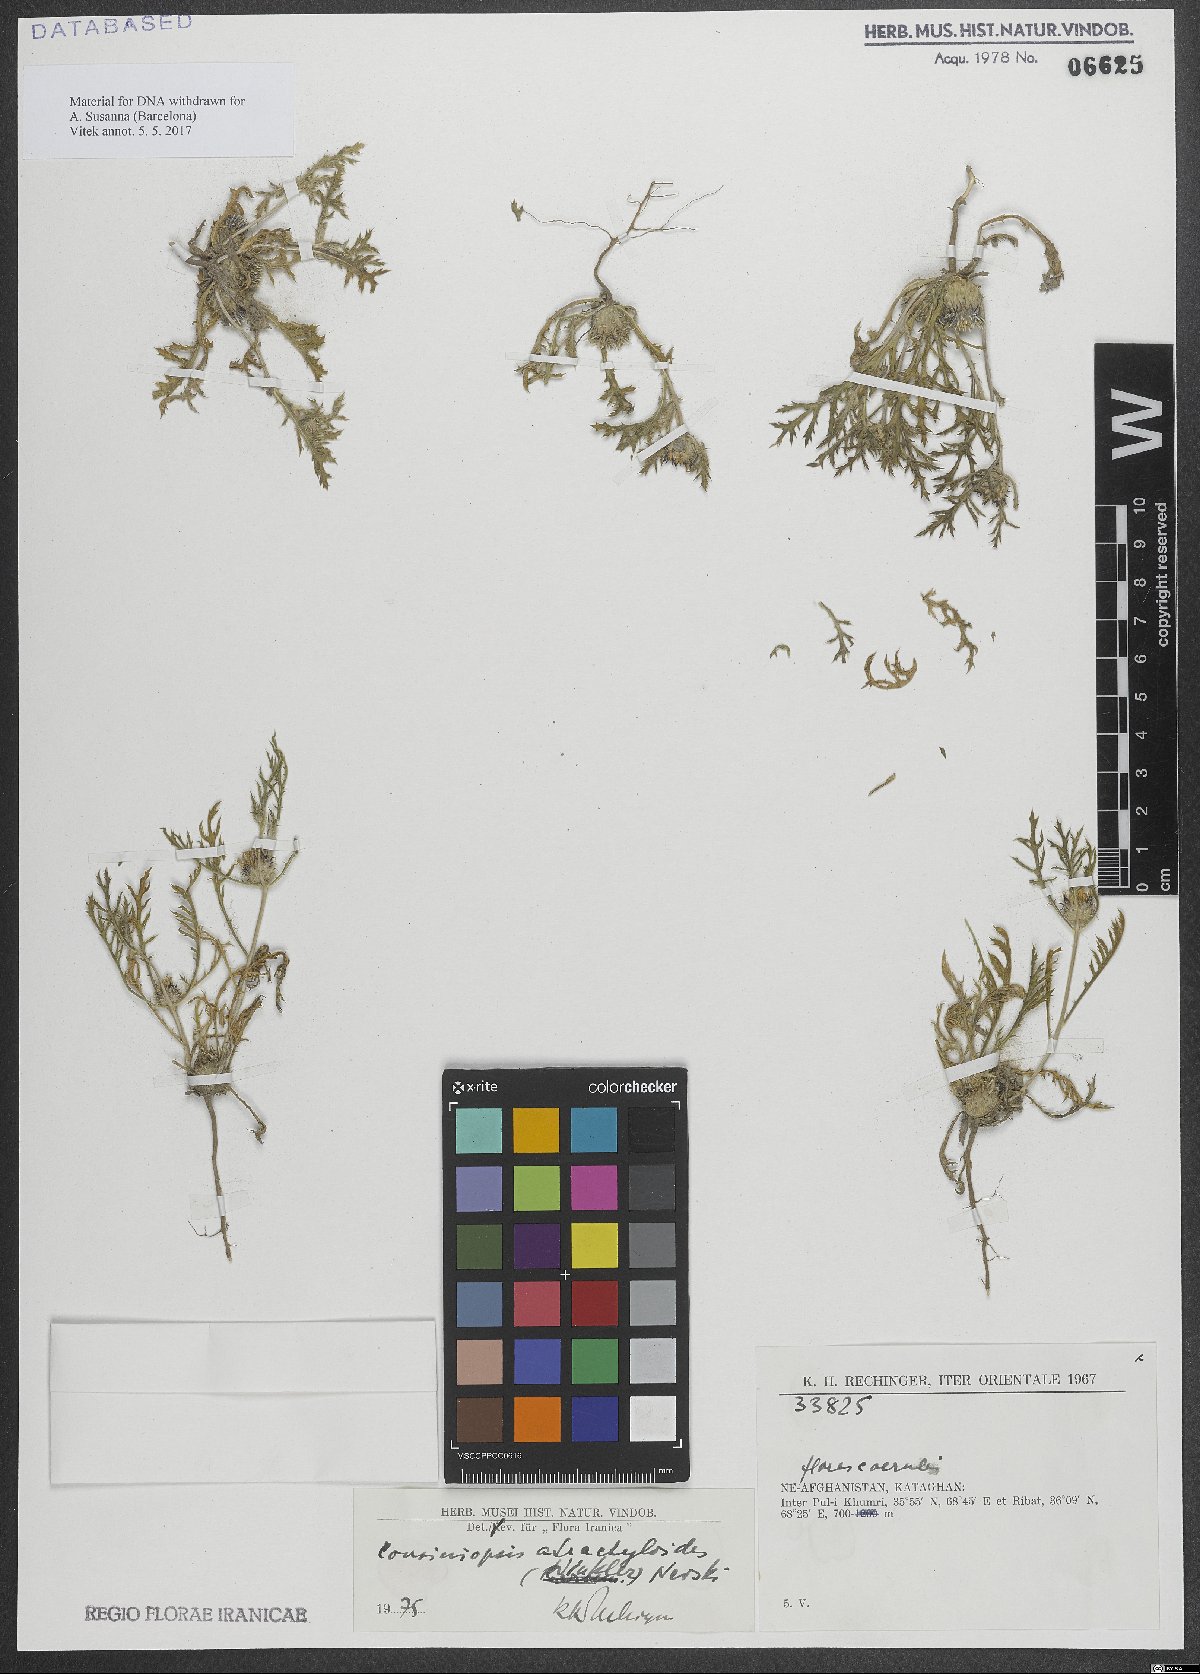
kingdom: Plantae
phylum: Tracheophyta
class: Magnoliopsida
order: Asterales
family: Asteraceae
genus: Cousiniopsis
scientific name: Cousiniopsis atractyloides
